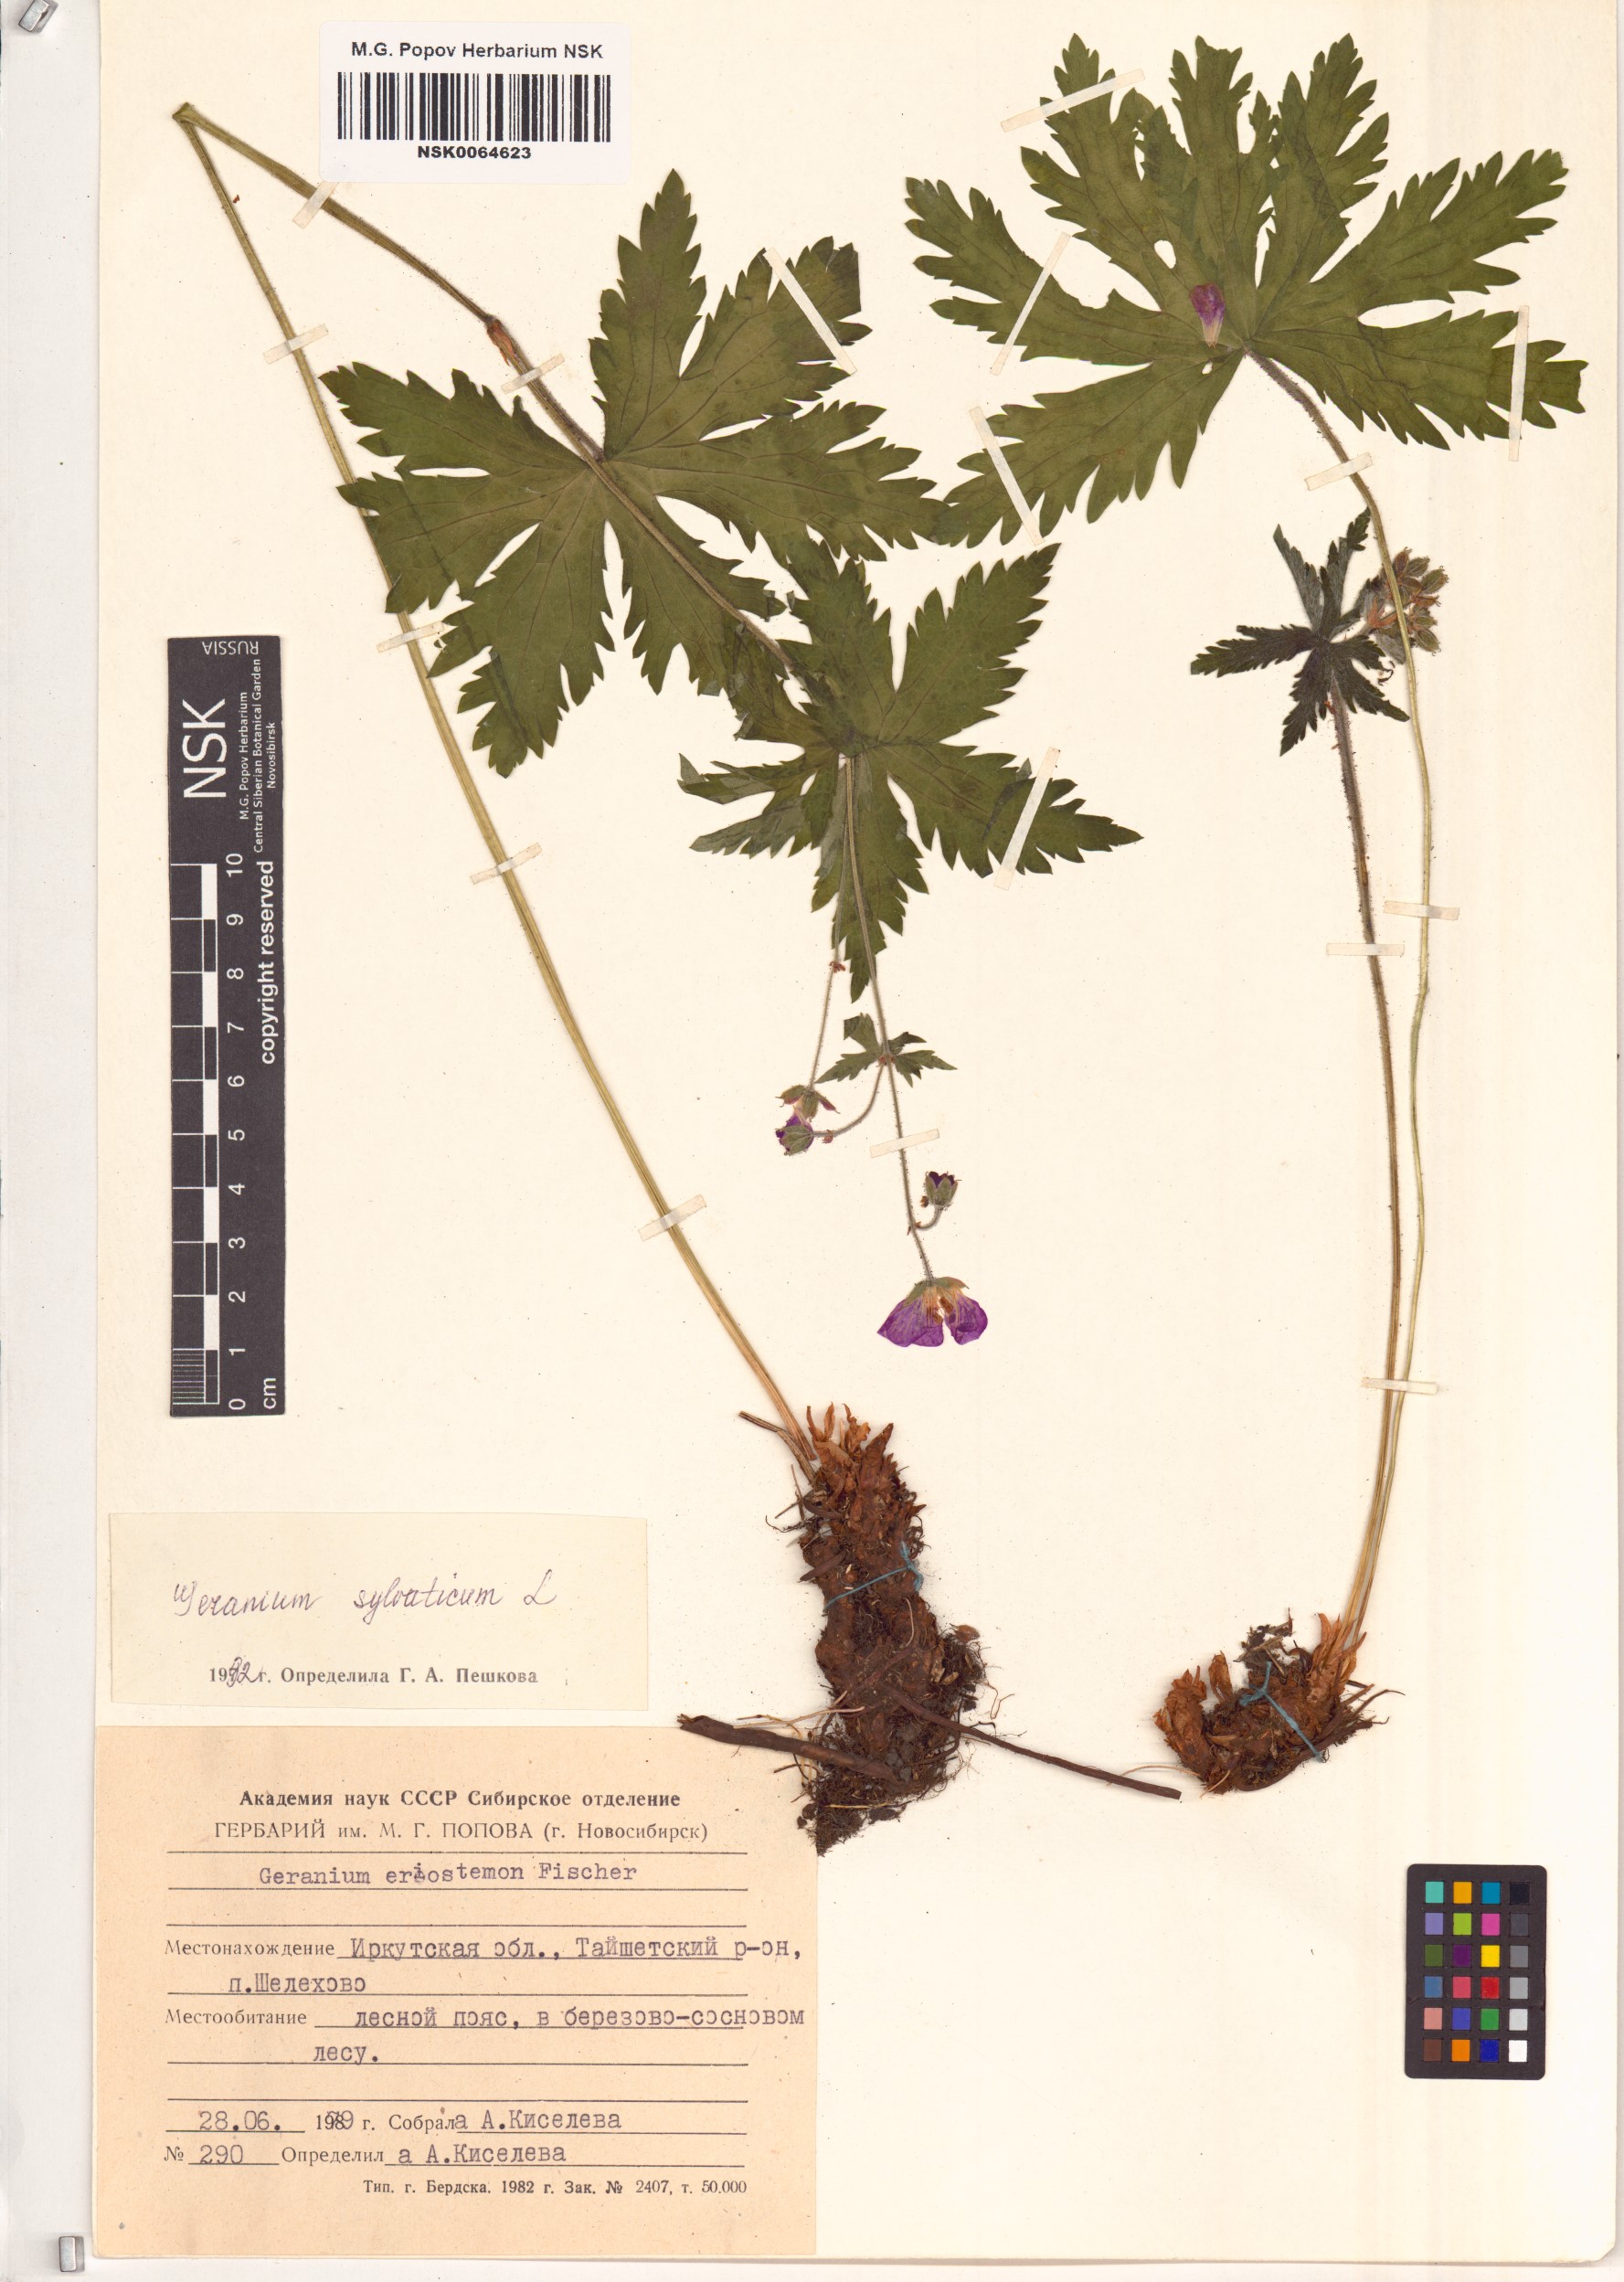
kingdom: Plantae
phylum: Tracheophyta
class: Magnoliopsida
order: Geraniales
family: Geraniaceae
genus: Geranium
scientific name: Geranium sylvaticum
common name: Wood crane's-bill
